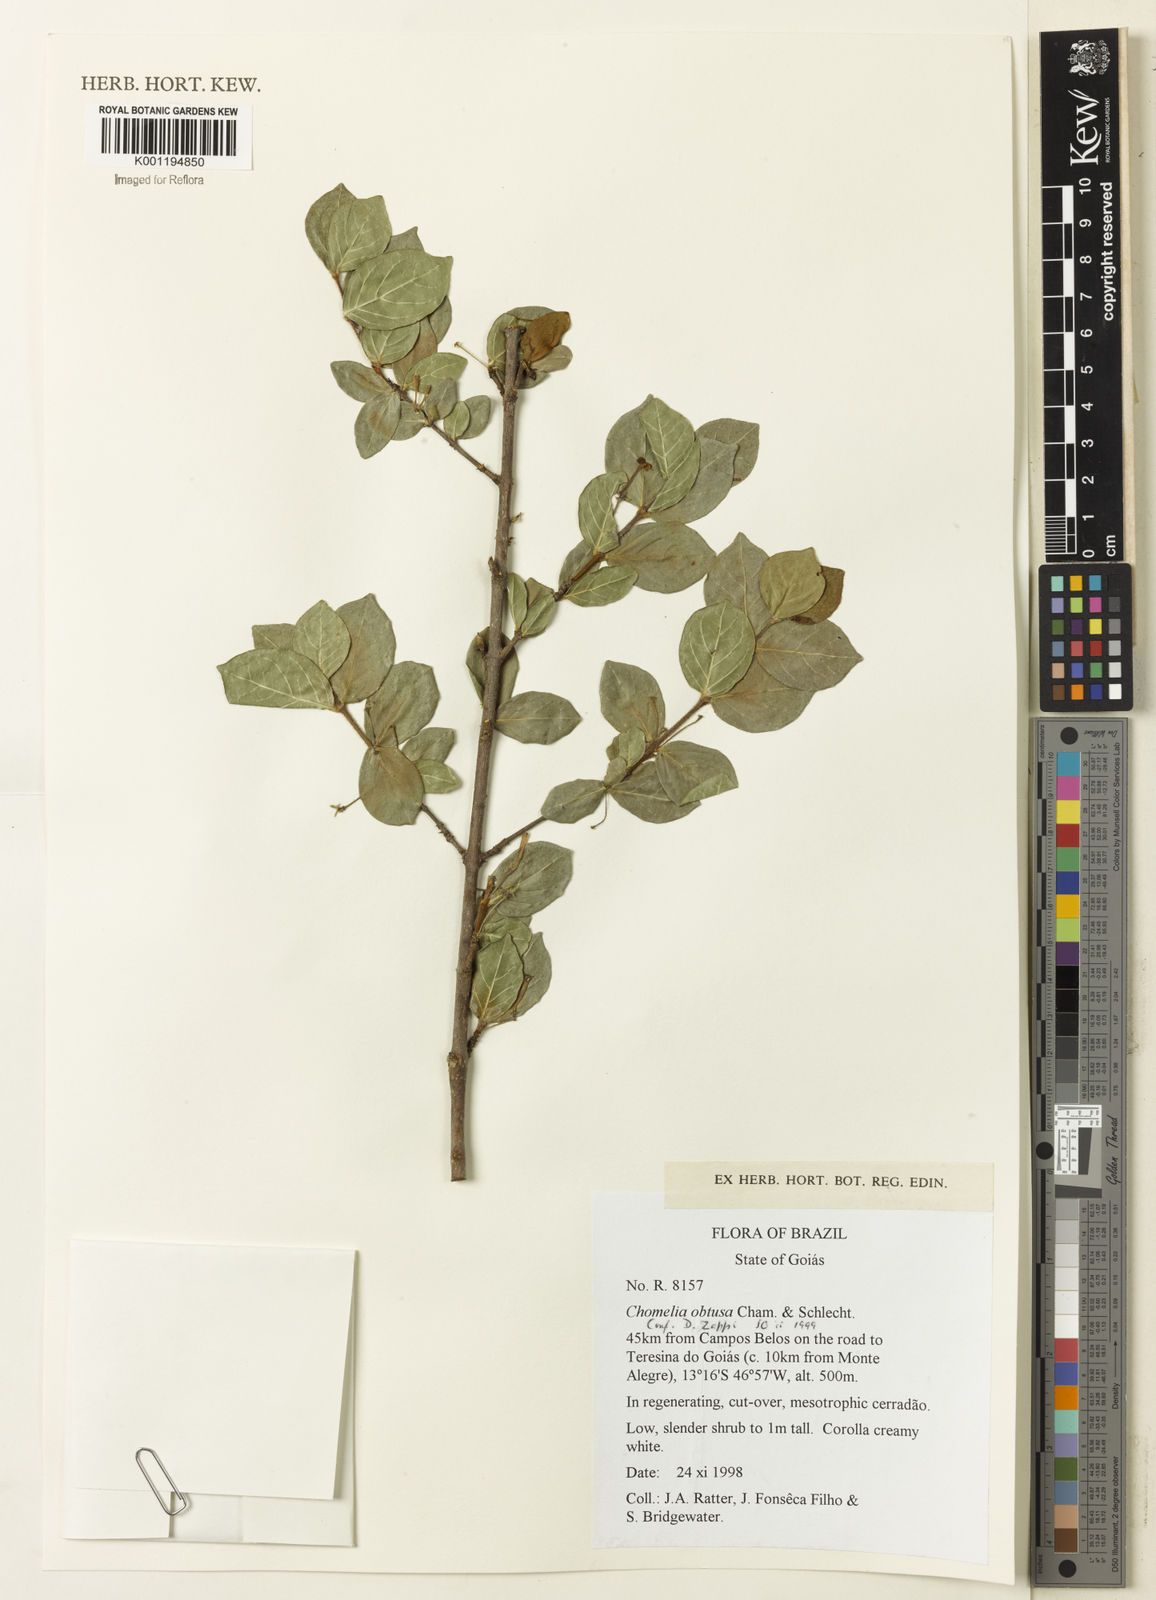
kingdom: Plantae
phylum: Tracheophyta
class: Magnoliopsida
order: Gentianales
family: Rubiaceae
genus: Chomelia
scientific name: Chomelia obtusa
